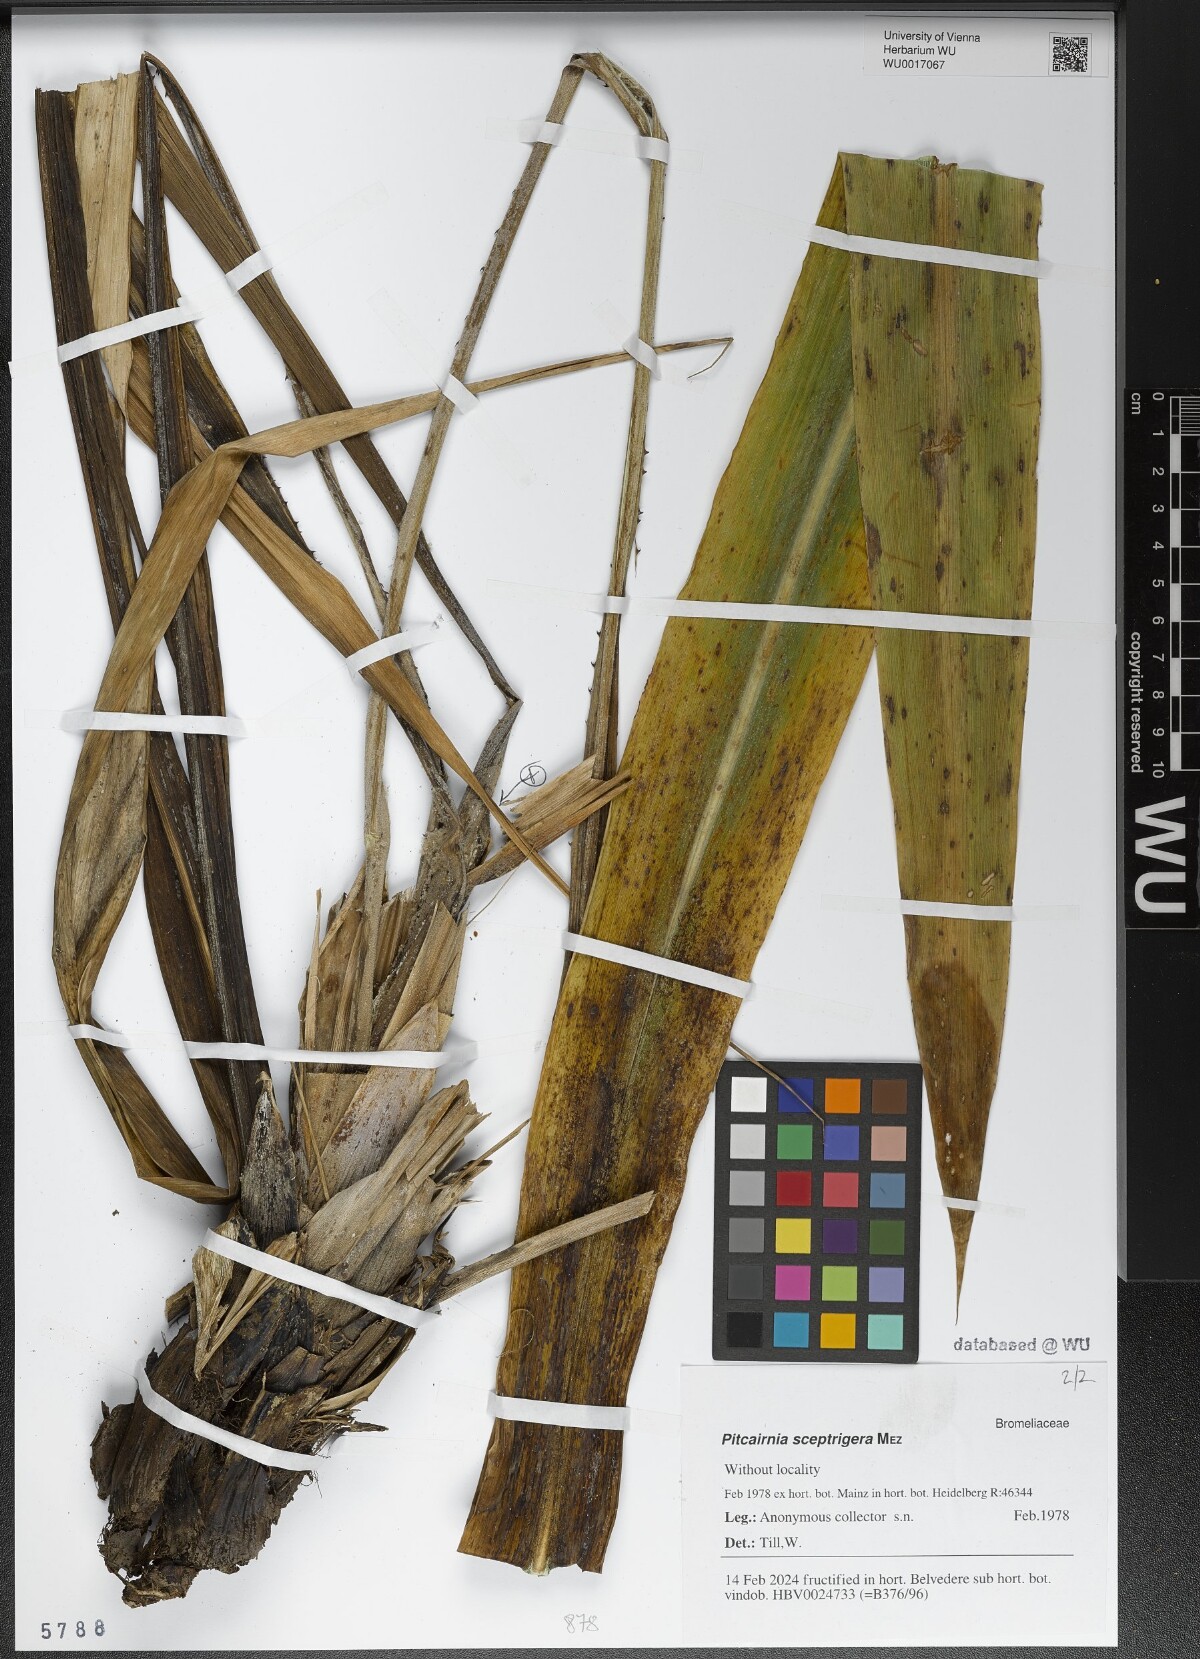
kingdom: Plantae
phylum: Tracheophyta
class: Liliopsida
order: Poales
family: Bromeliaceae
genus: Pitcairnia
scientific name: Pitcairnia sceptrigera
